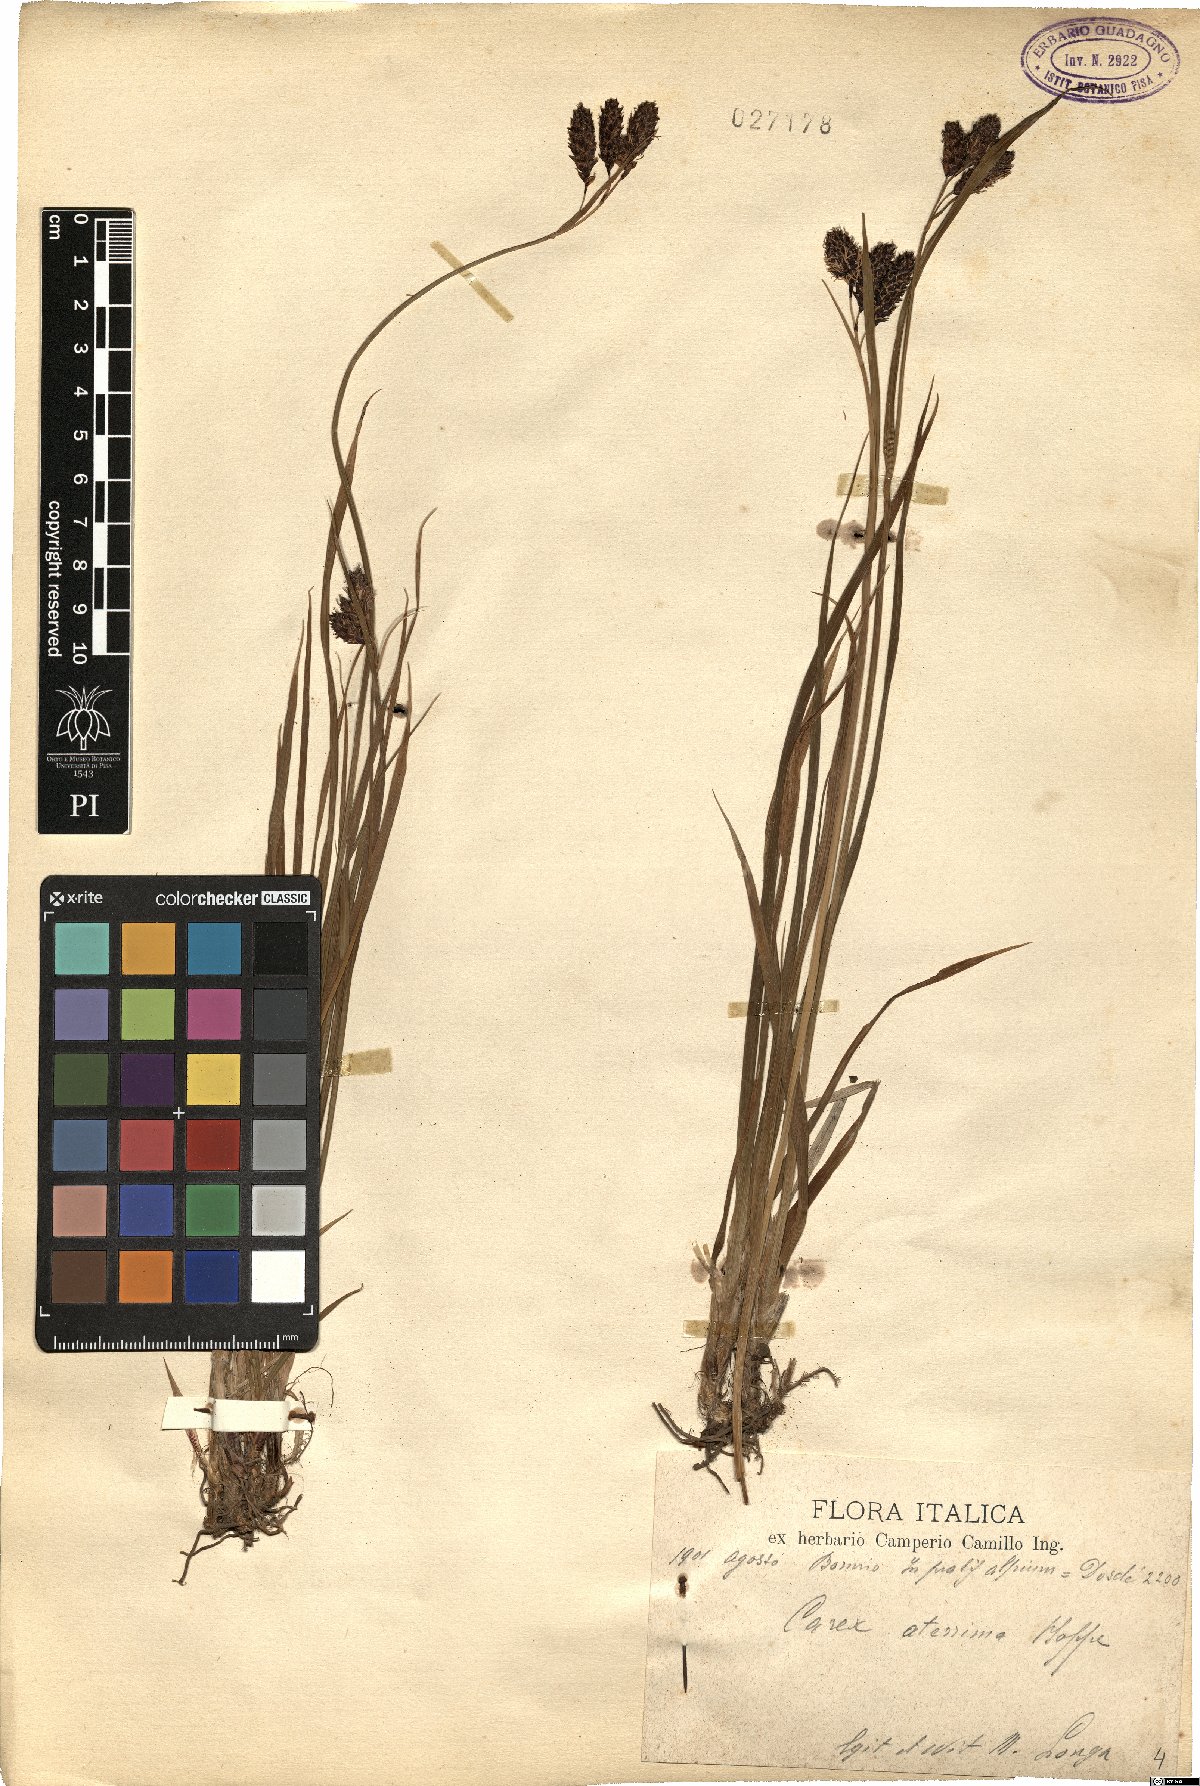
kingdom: Plantae
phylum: Tracheophyta
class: Liliopsida
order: Poales
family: Cyperaceae
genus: Carex
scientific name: Carex aterrima
